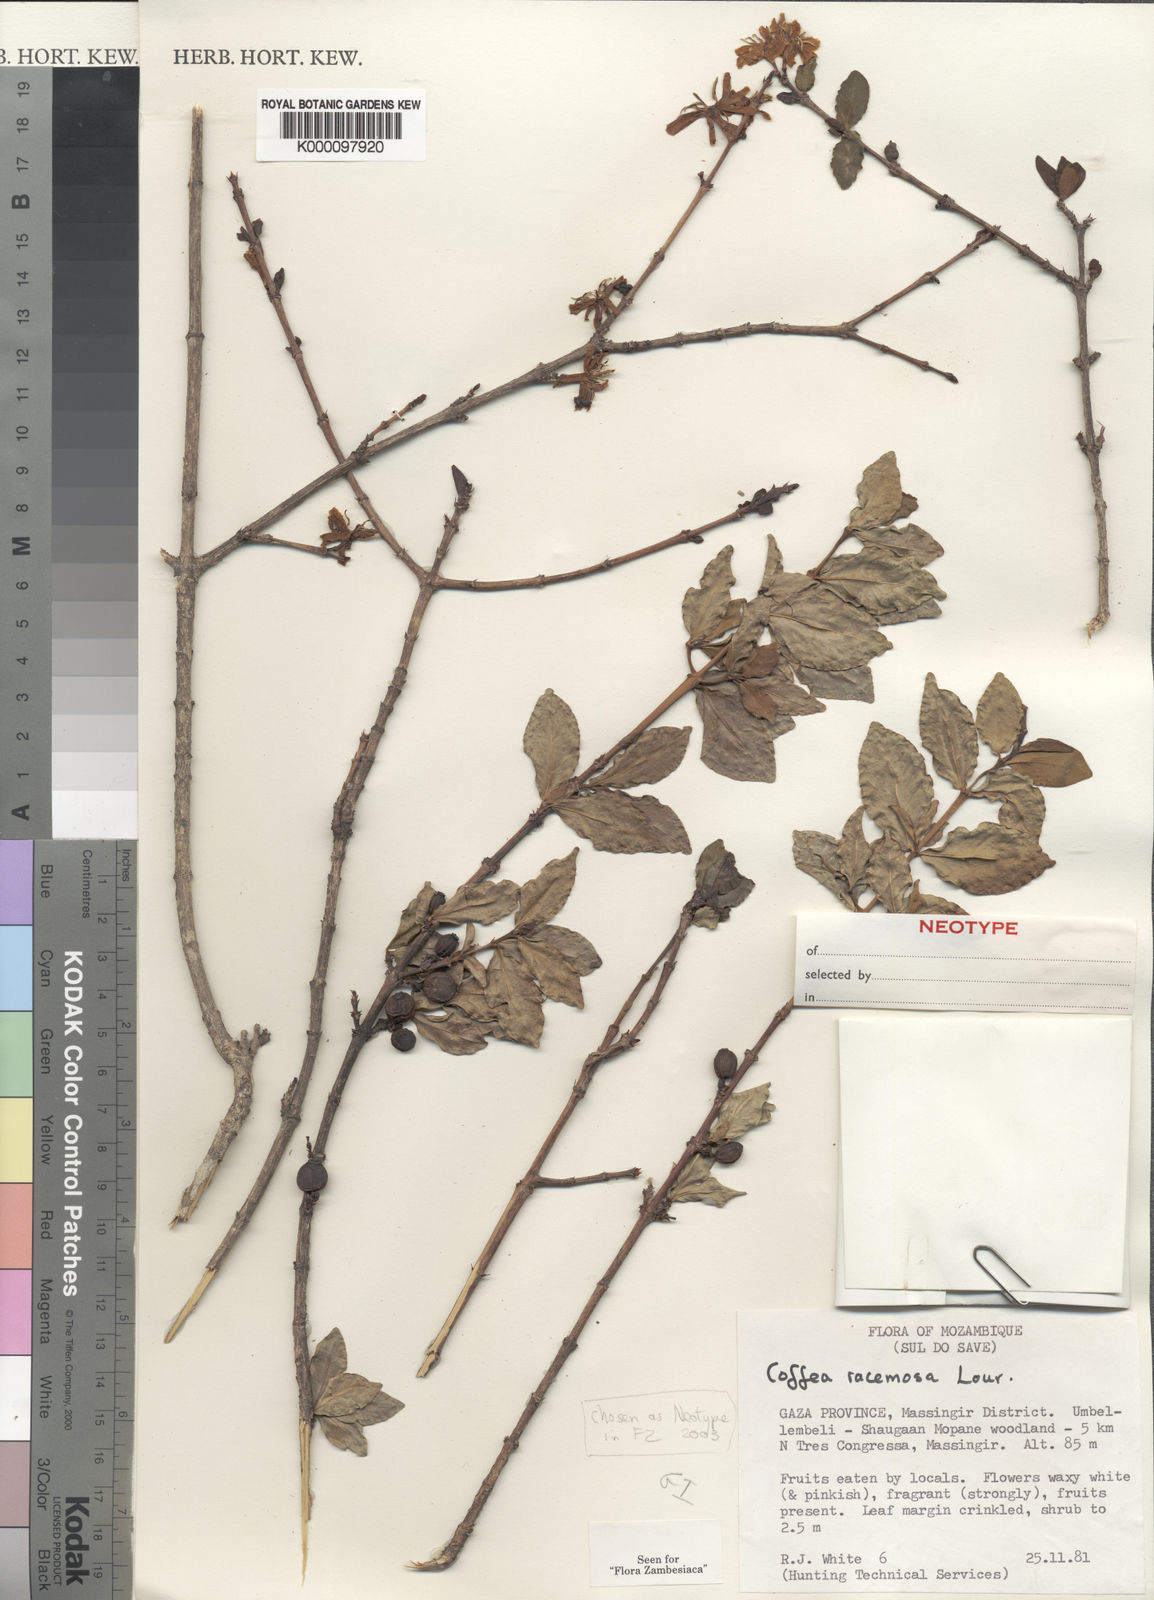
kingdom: Plantae
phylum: Tracheophyta
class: Magnoliopsida
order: Gentianales
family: Rubiaceae
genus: Coffea
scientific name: Coffea racemosa
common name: Inhambane coffee
